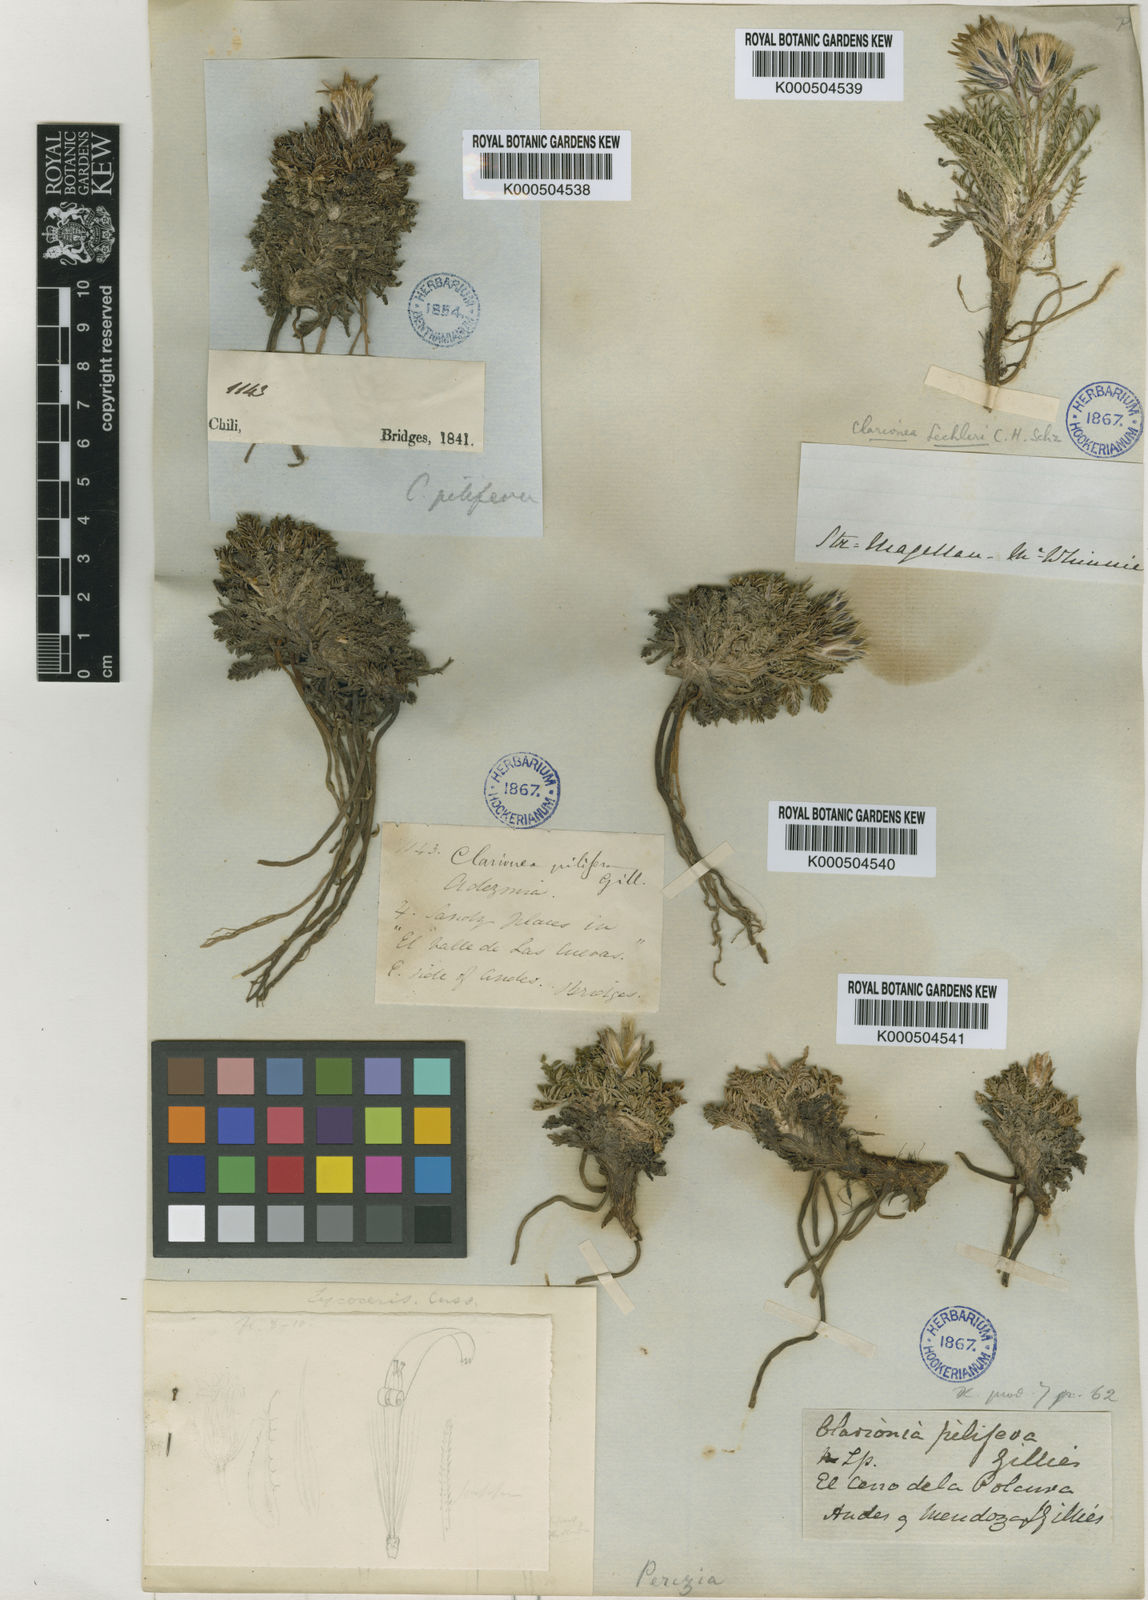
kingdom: Plantae
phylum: Tracheophyta
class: Magnoliopsida
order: Asterales
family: Asteraceae
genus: Perezia
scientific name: Perezia pilifera
